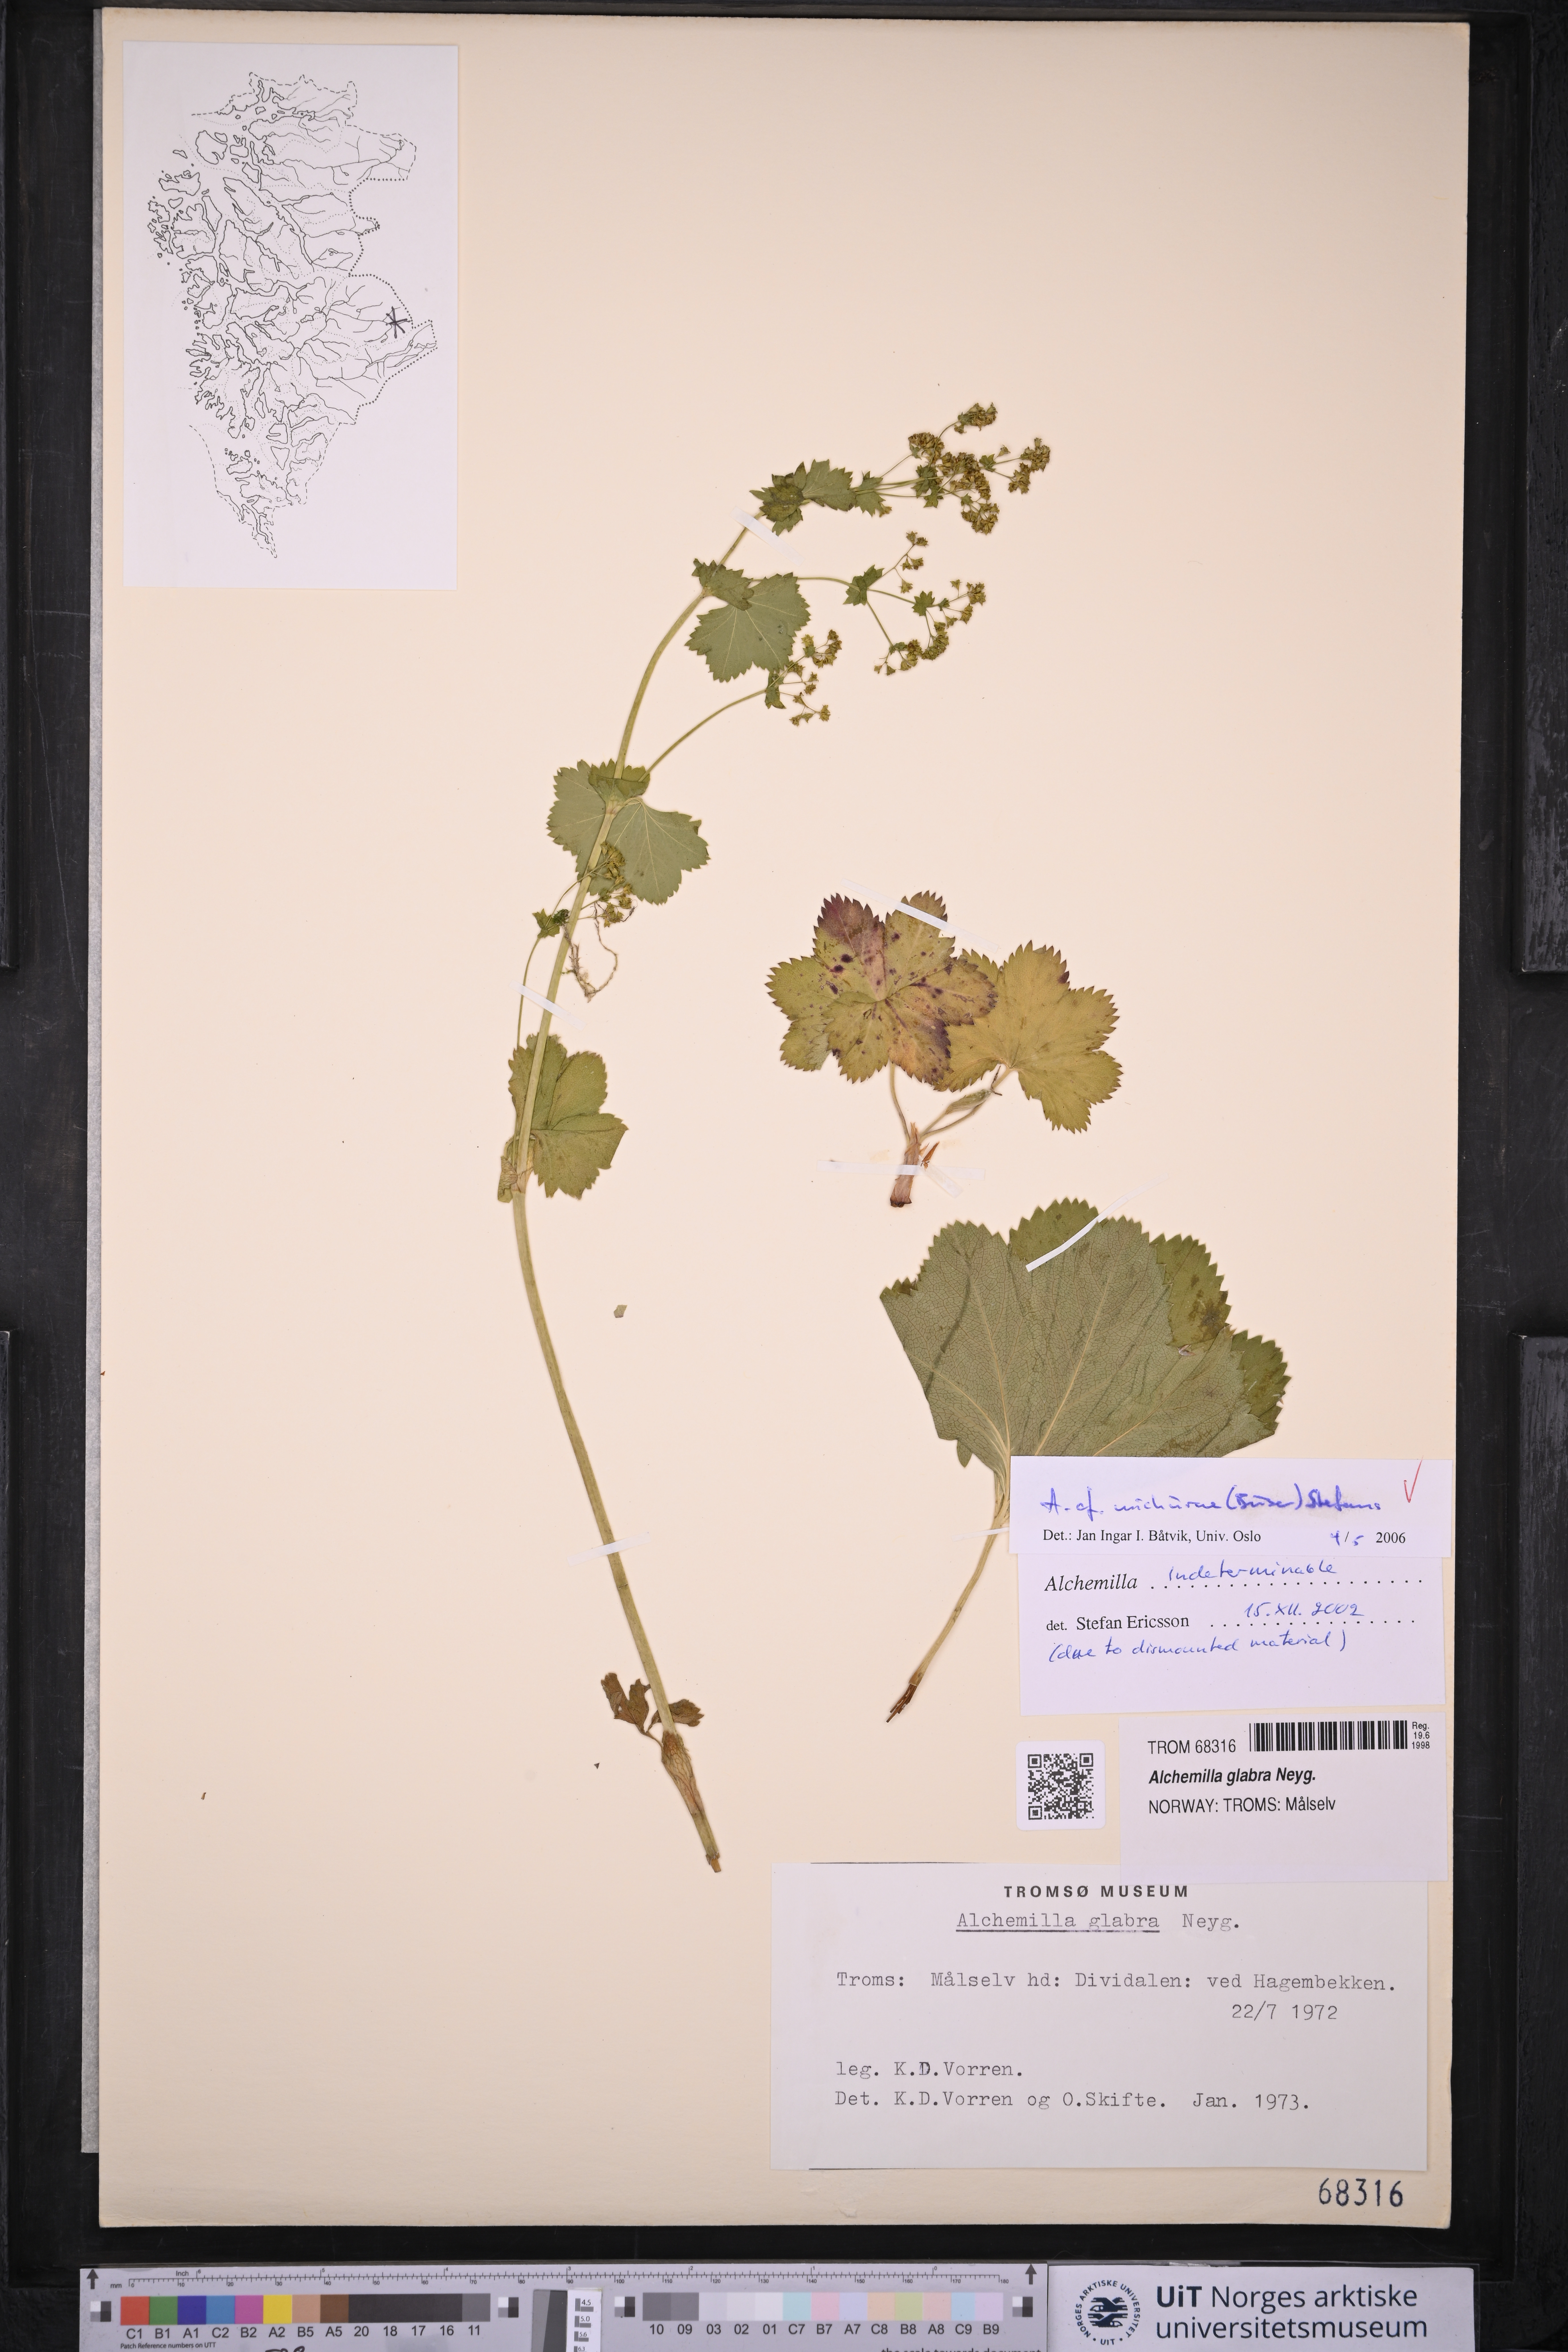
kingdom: Plantae
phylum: Tracheophyta
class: Magnoliopsida
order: Rosales
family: Rosaceae
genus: Alchemilla
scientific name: Alchemilla wichurae
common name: Rock lady's mantle
